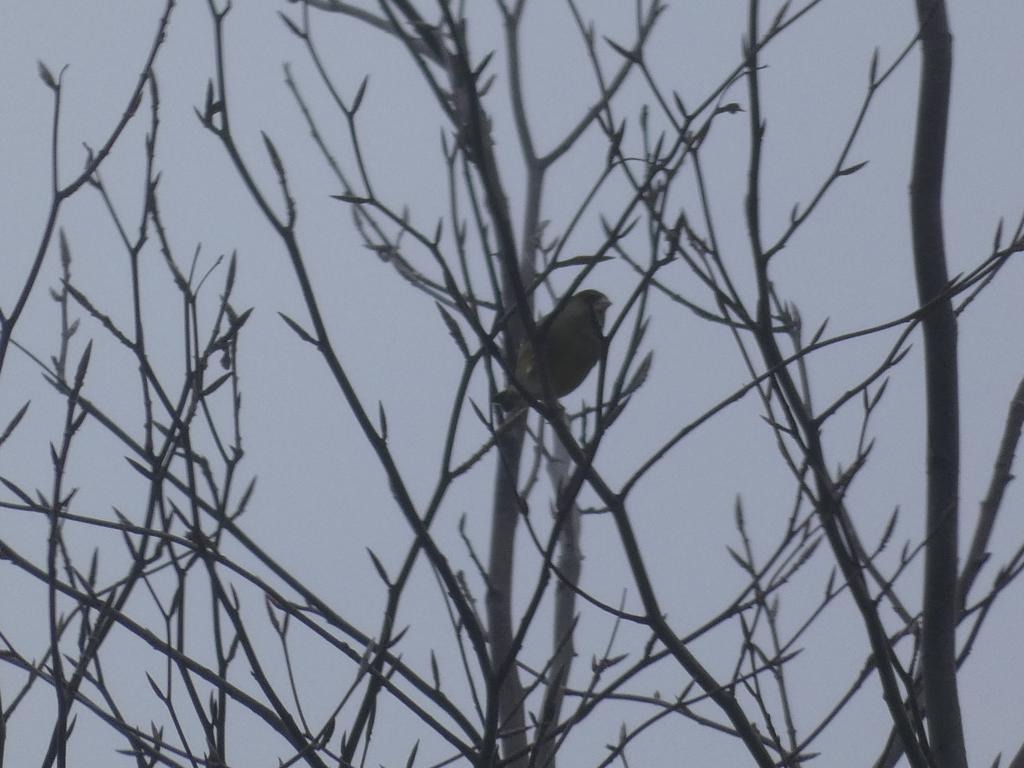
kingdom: Plantae
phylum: Tracheophyta
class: Liliopsida
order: Poales
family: Poaceae
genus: Chloris
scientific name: Chloris chloris
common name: Grønirisk
